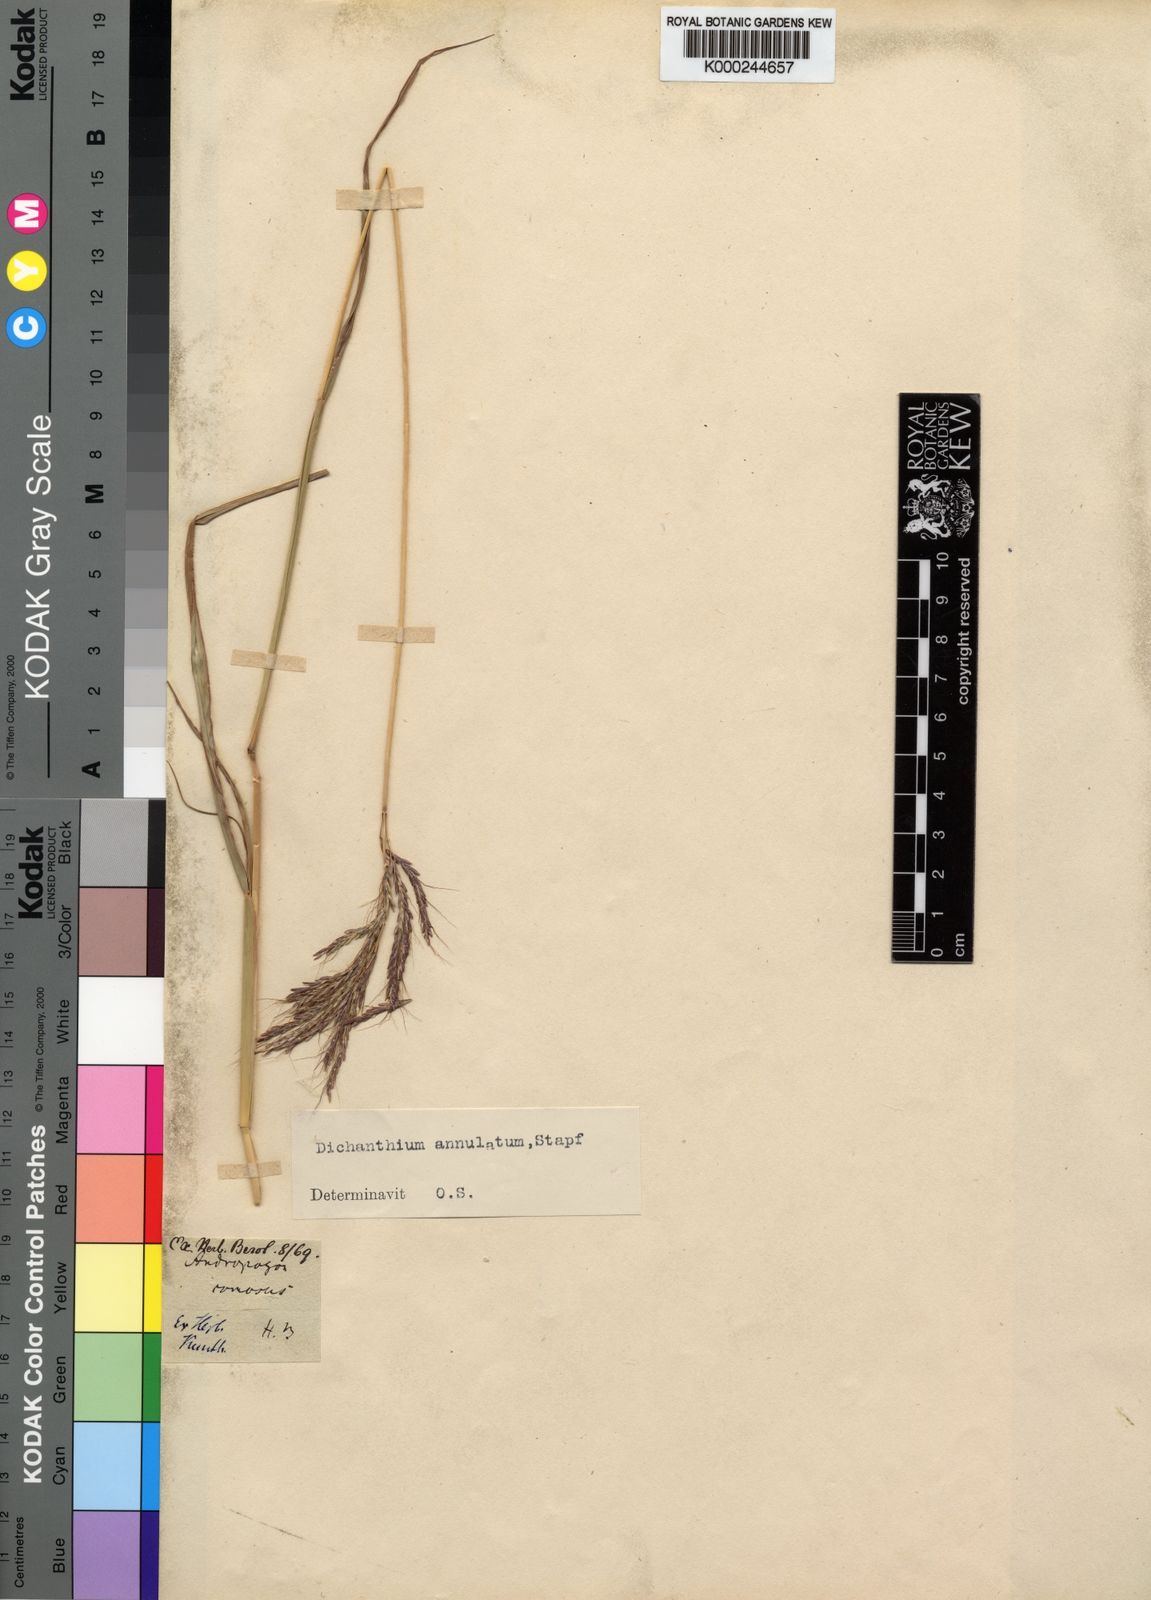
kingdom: Plantae
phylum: Tracheophyta
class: Liliopsida
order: Poales
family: Poaceae
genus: Dichanthium
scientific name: Dichanthium annulatum
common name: Kleberg's bluestem
